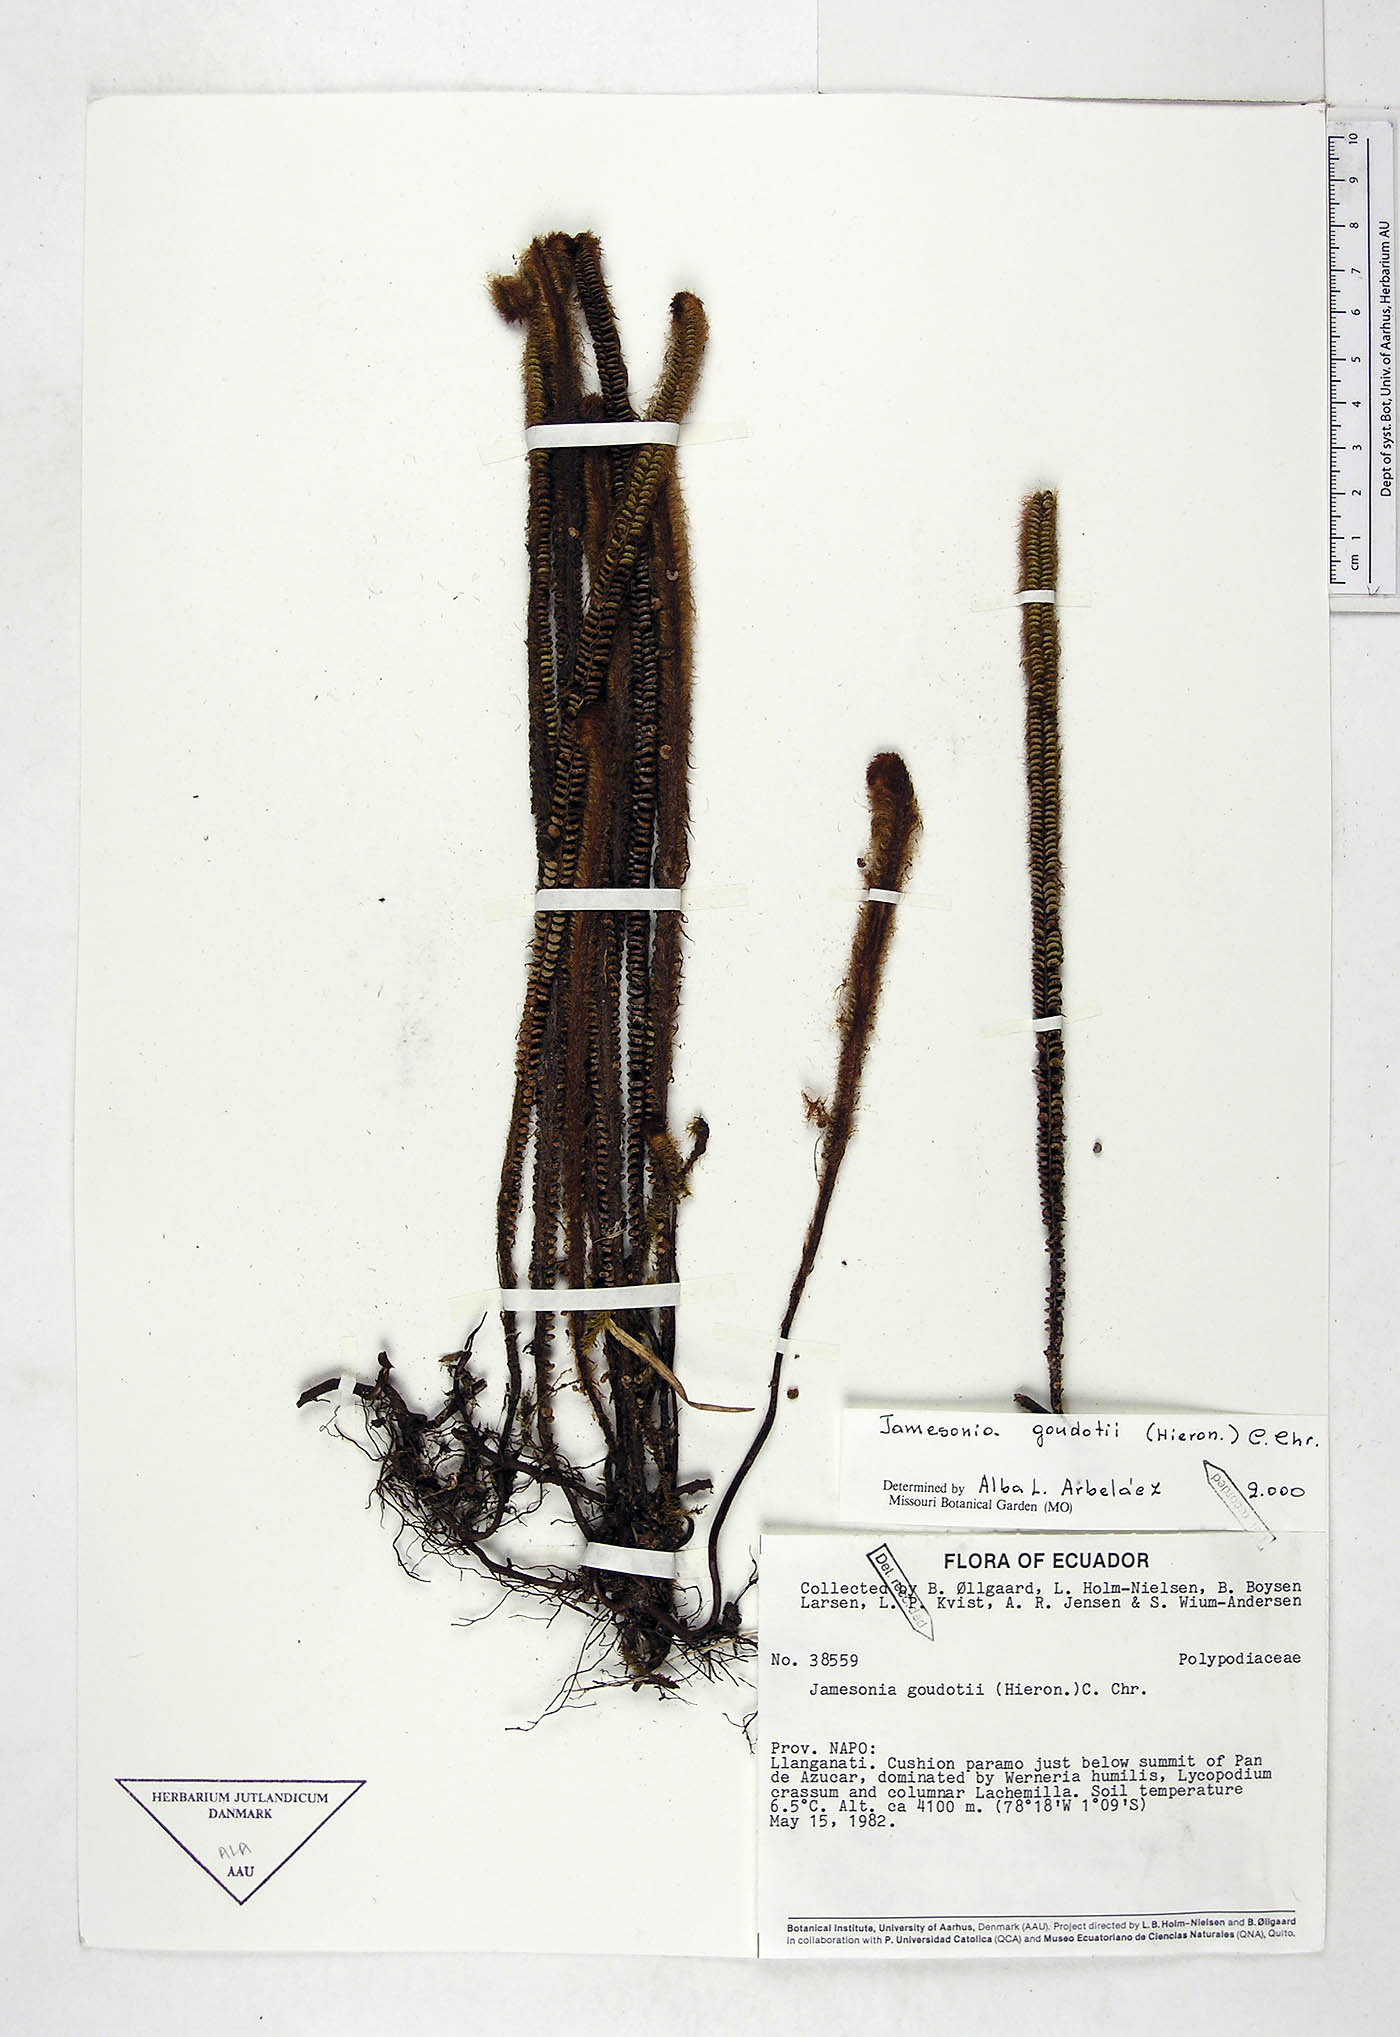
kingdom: Plantae
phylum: Tracheophyta
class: Polypodiopsida
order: Polypodiales
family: Pteridaceae
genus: Jamesonia
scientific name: Jamesonia goudotii
